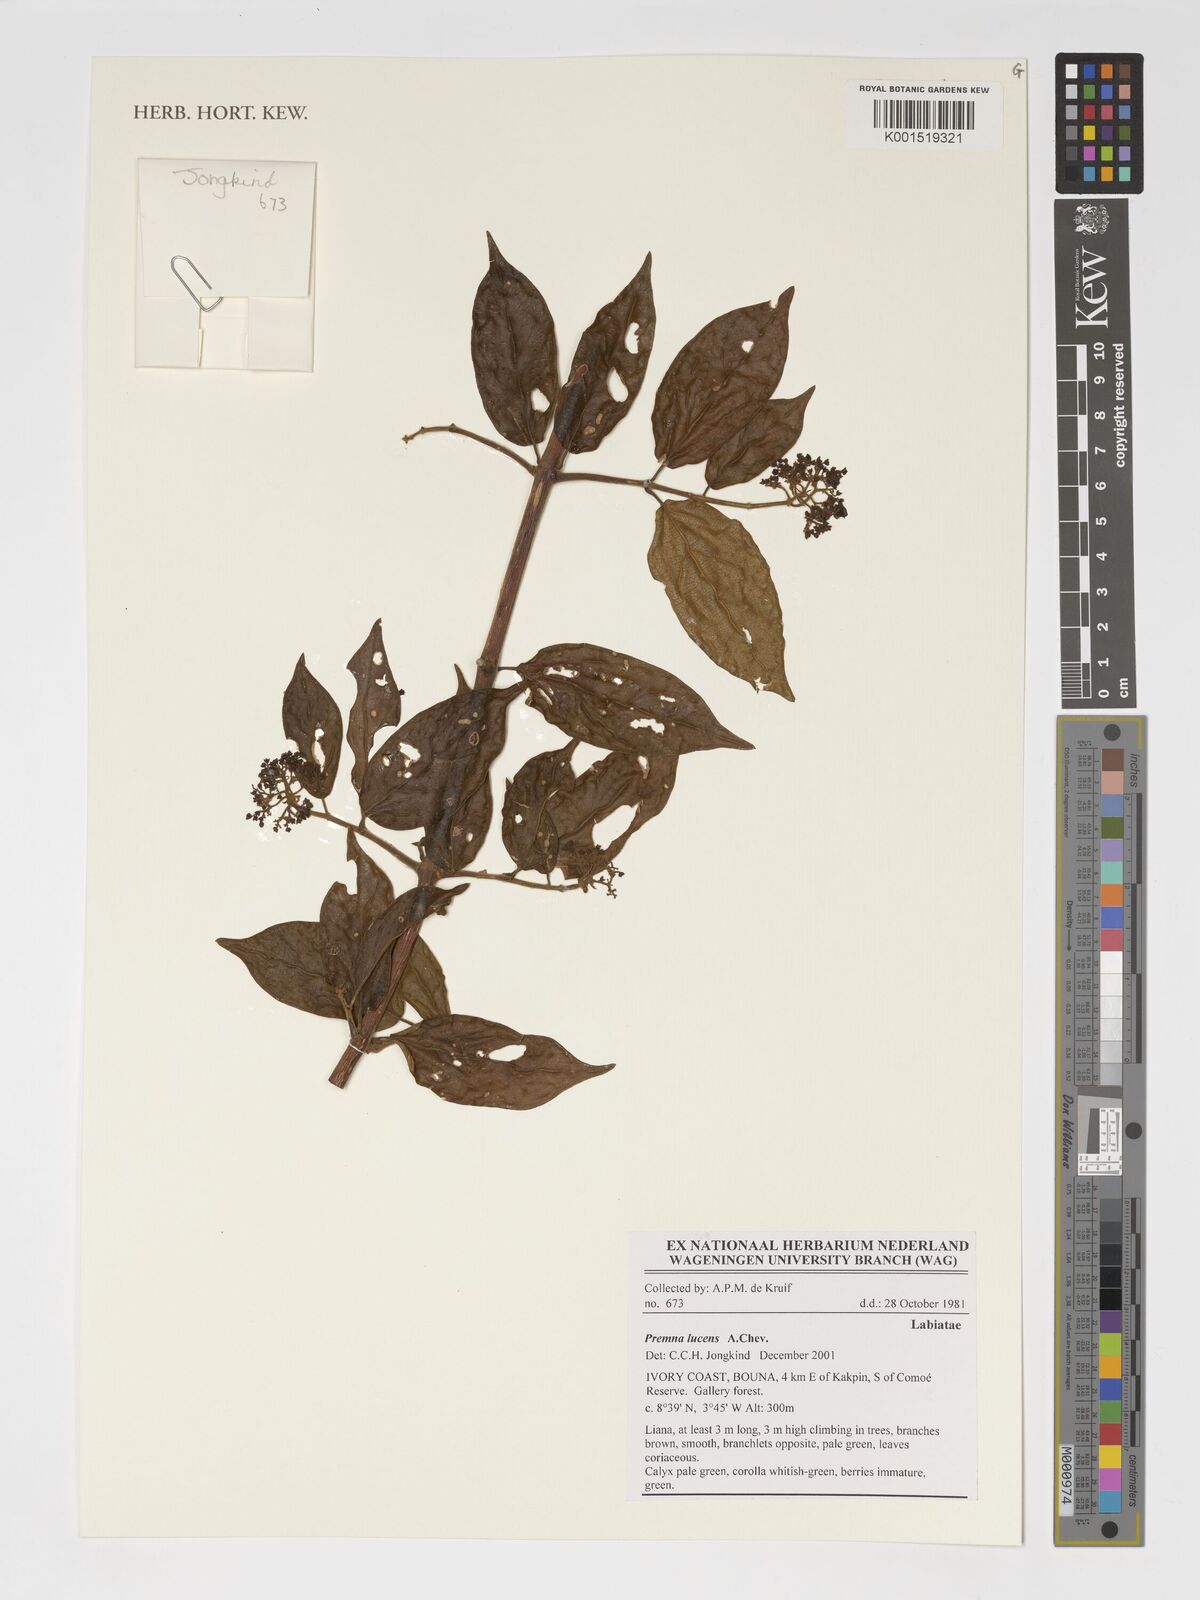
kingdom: Plantae
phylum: Tracheophyta
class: Magnoliopsida
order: Lamiales
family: Lamiaceae
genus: Premna
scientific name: Premna lucens
